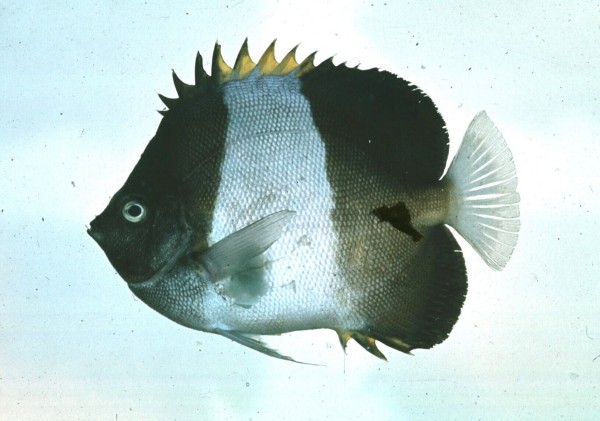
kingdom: Animalia
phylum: Chordata
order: Perciformes
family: Chaetodontidae
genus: Hemitaurichthys
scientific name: Hemitaurichthys zoster
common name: Brown-and-white butterflyfish
